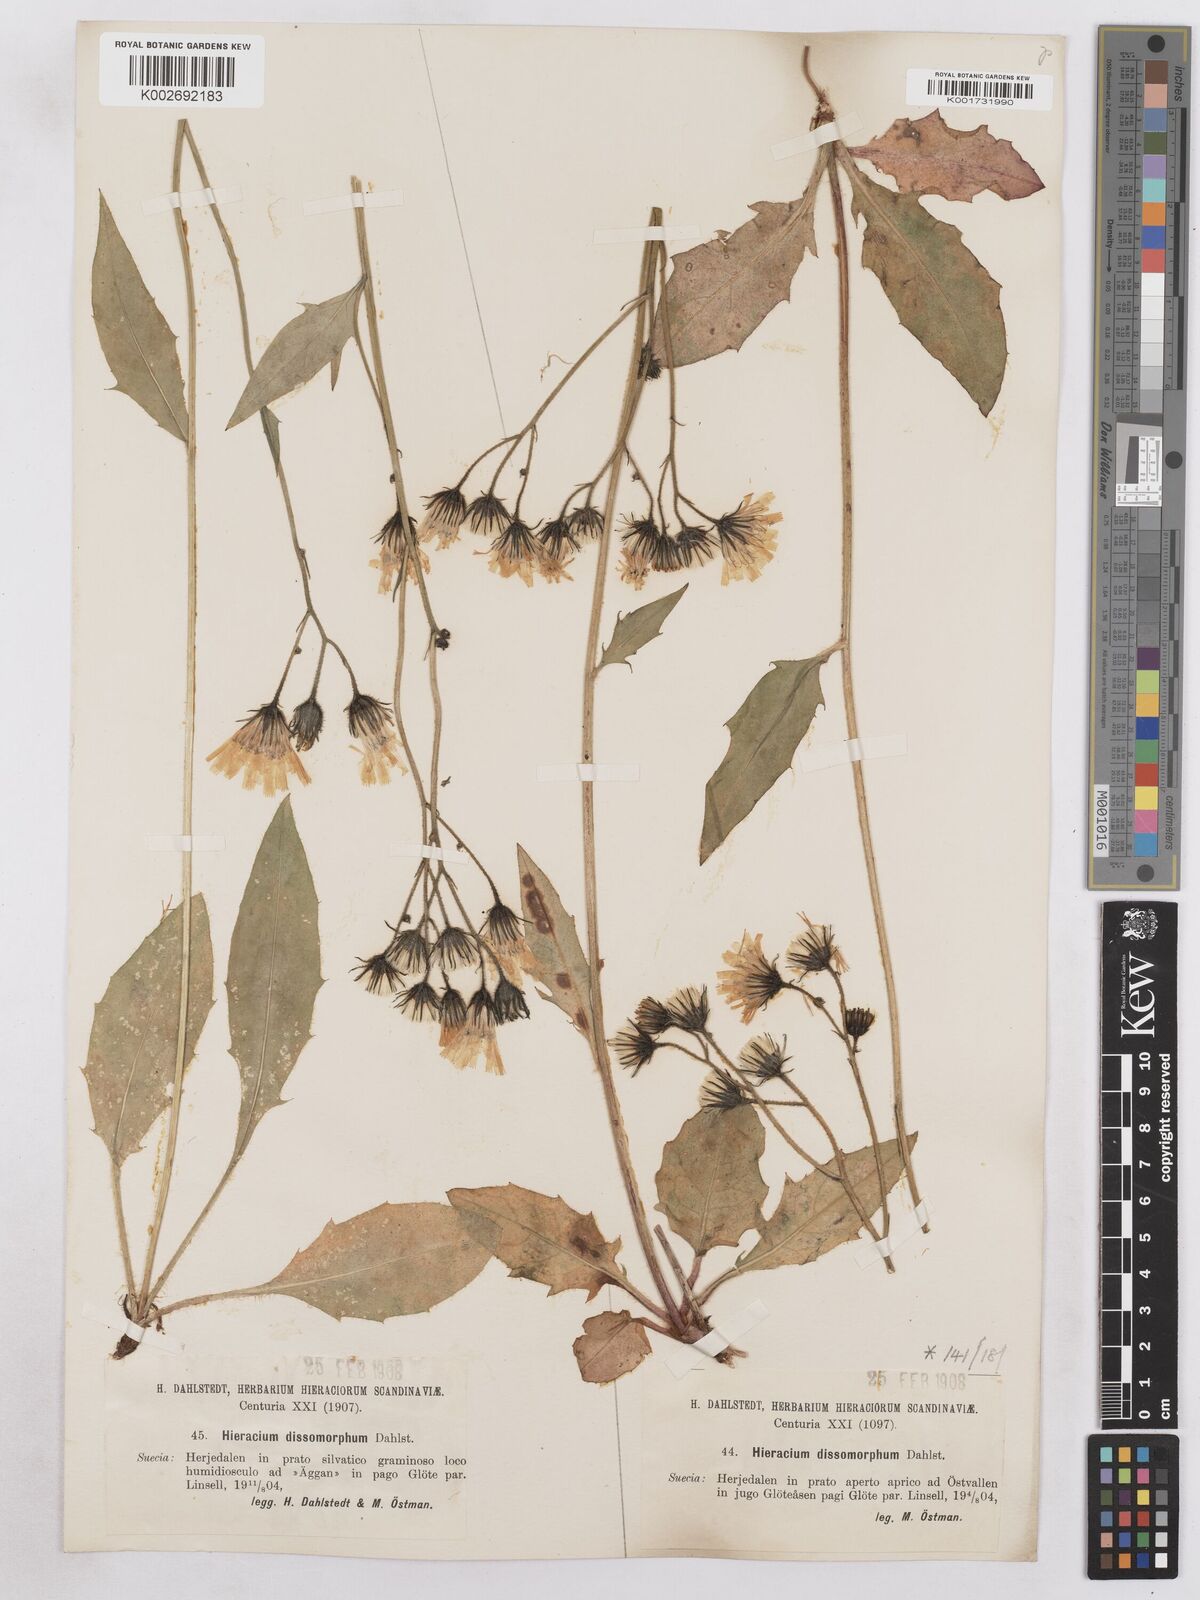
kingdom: Plantae
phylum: Tracheophyta
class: Magnoliopsida
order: Asterales
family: Asteraceae
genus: Hieracium
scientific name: Hieracium diaphanoides
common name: Fine-bracted hawkweed
